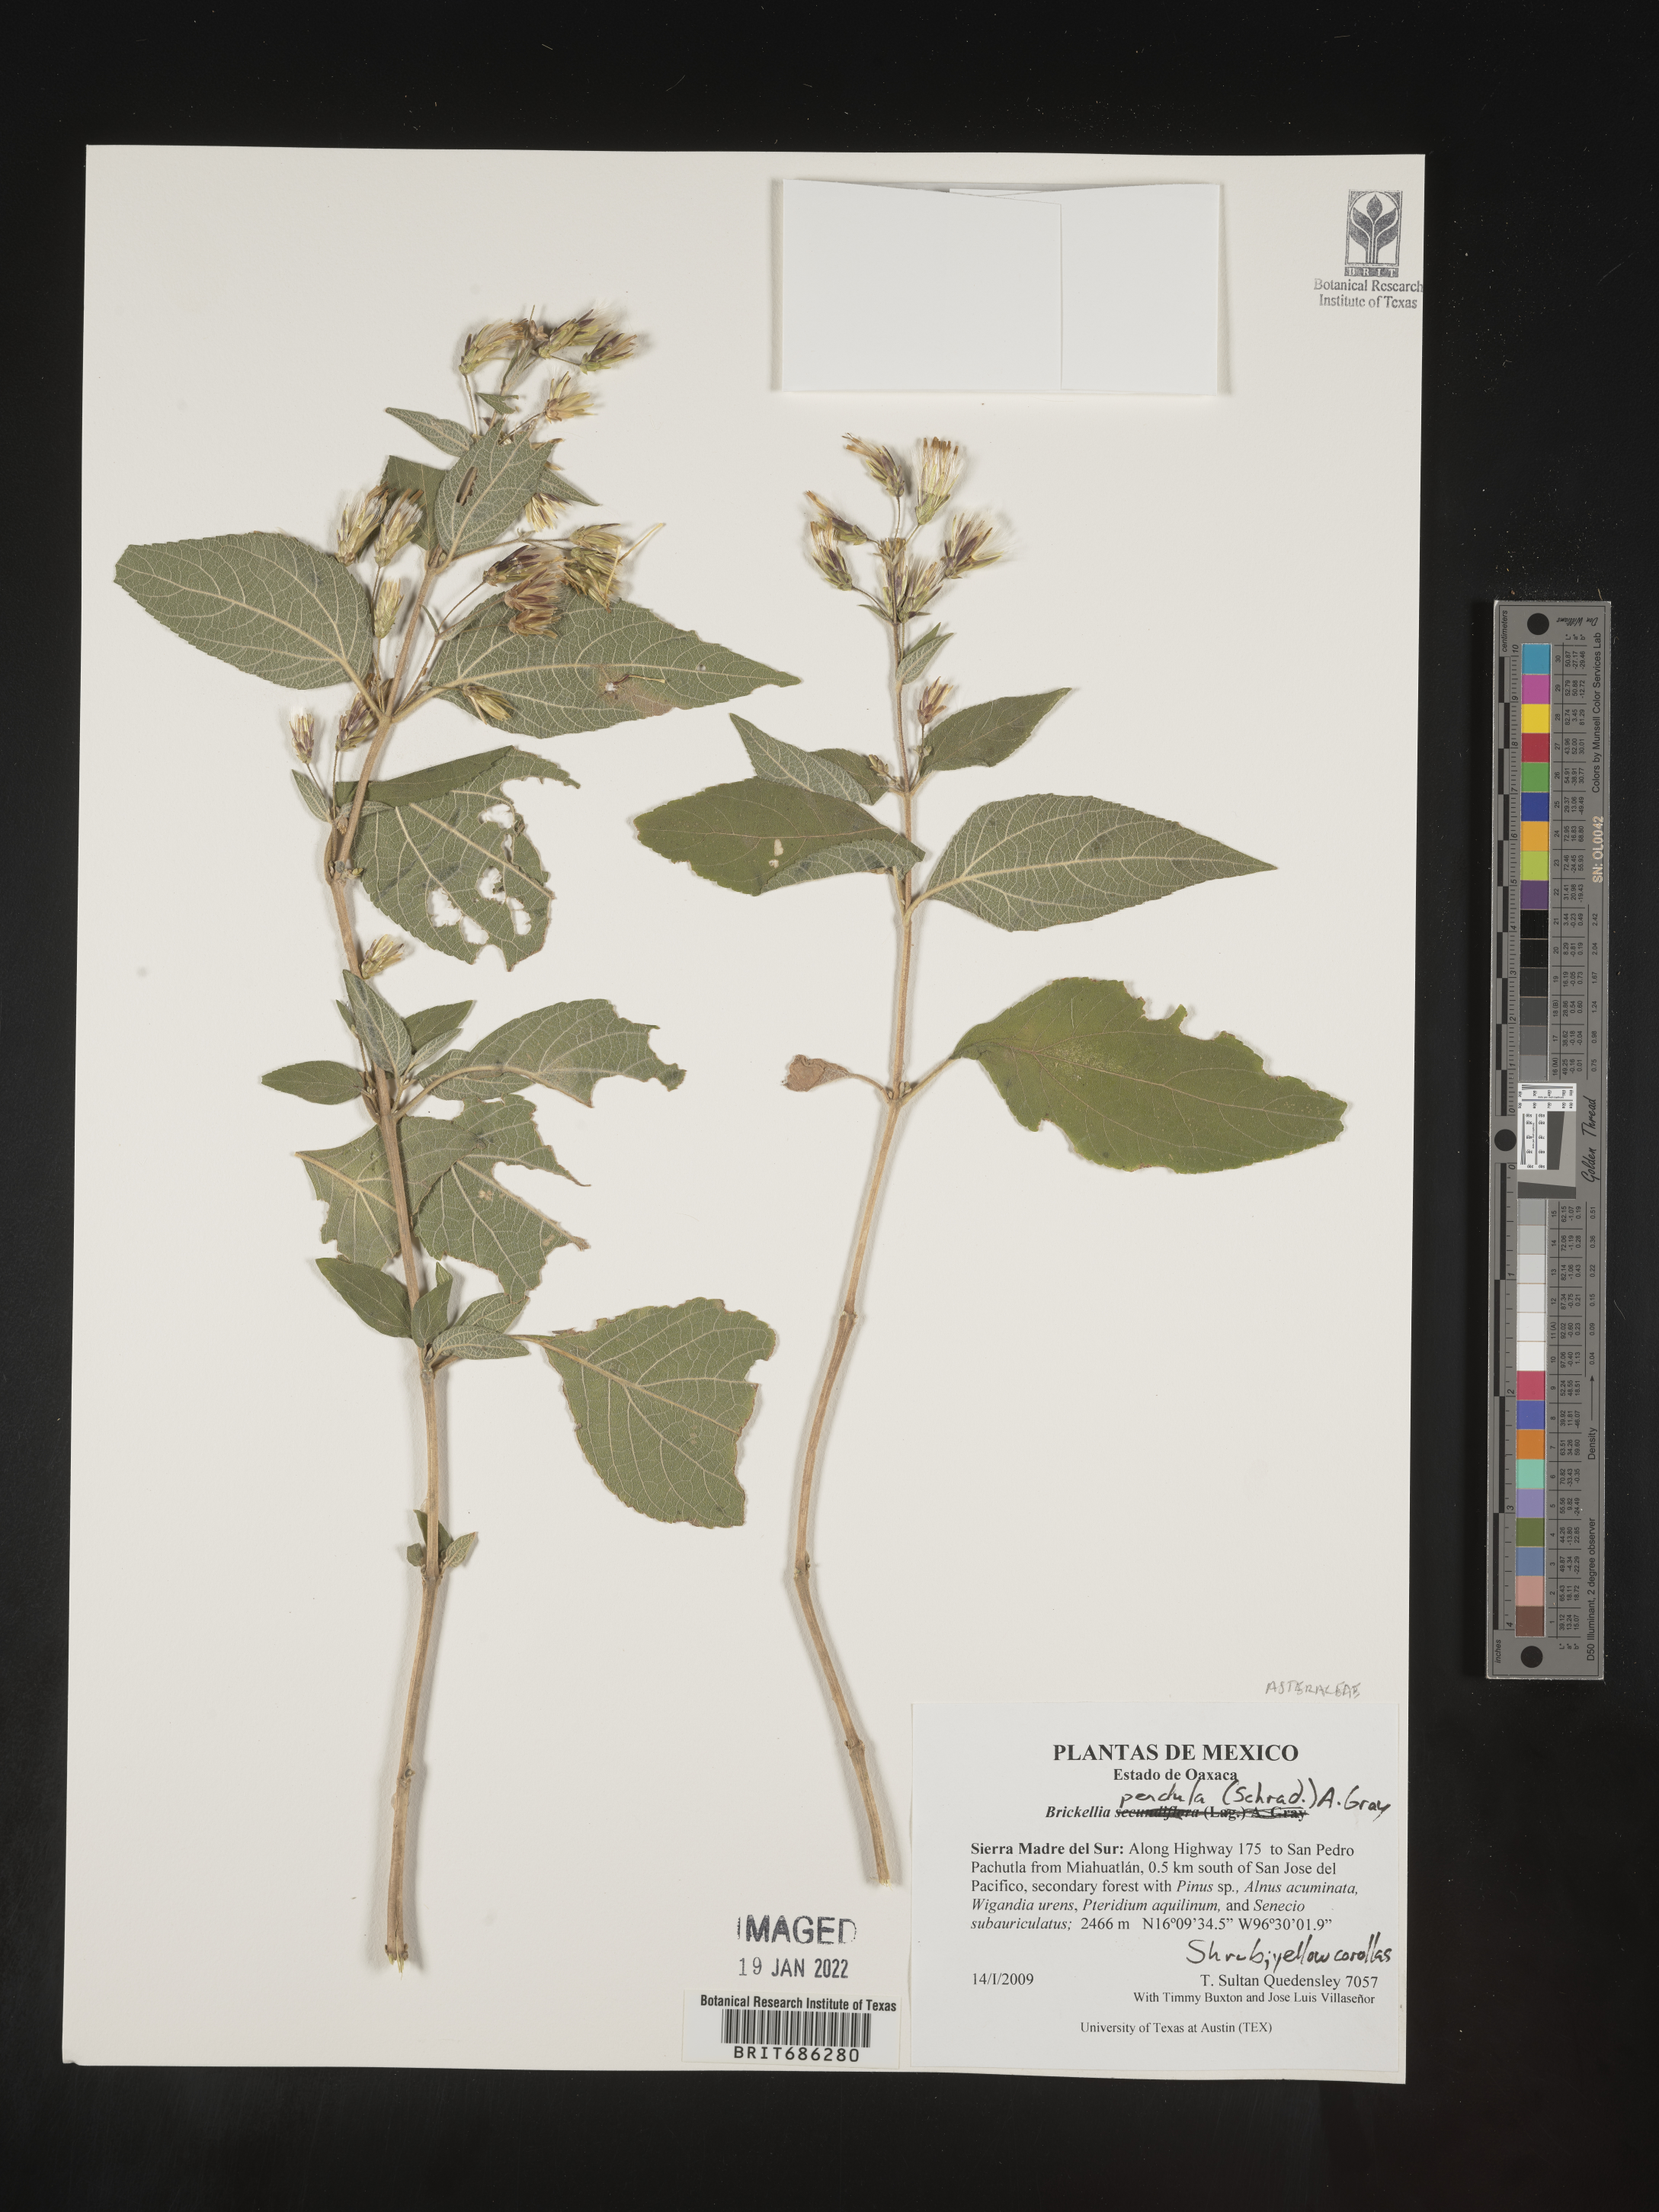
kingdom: Plantae
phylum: Tracheophyta
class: Magnoliopsida
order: Asterales
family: Asteraceae
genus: Brickellia
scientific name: Brickellia
